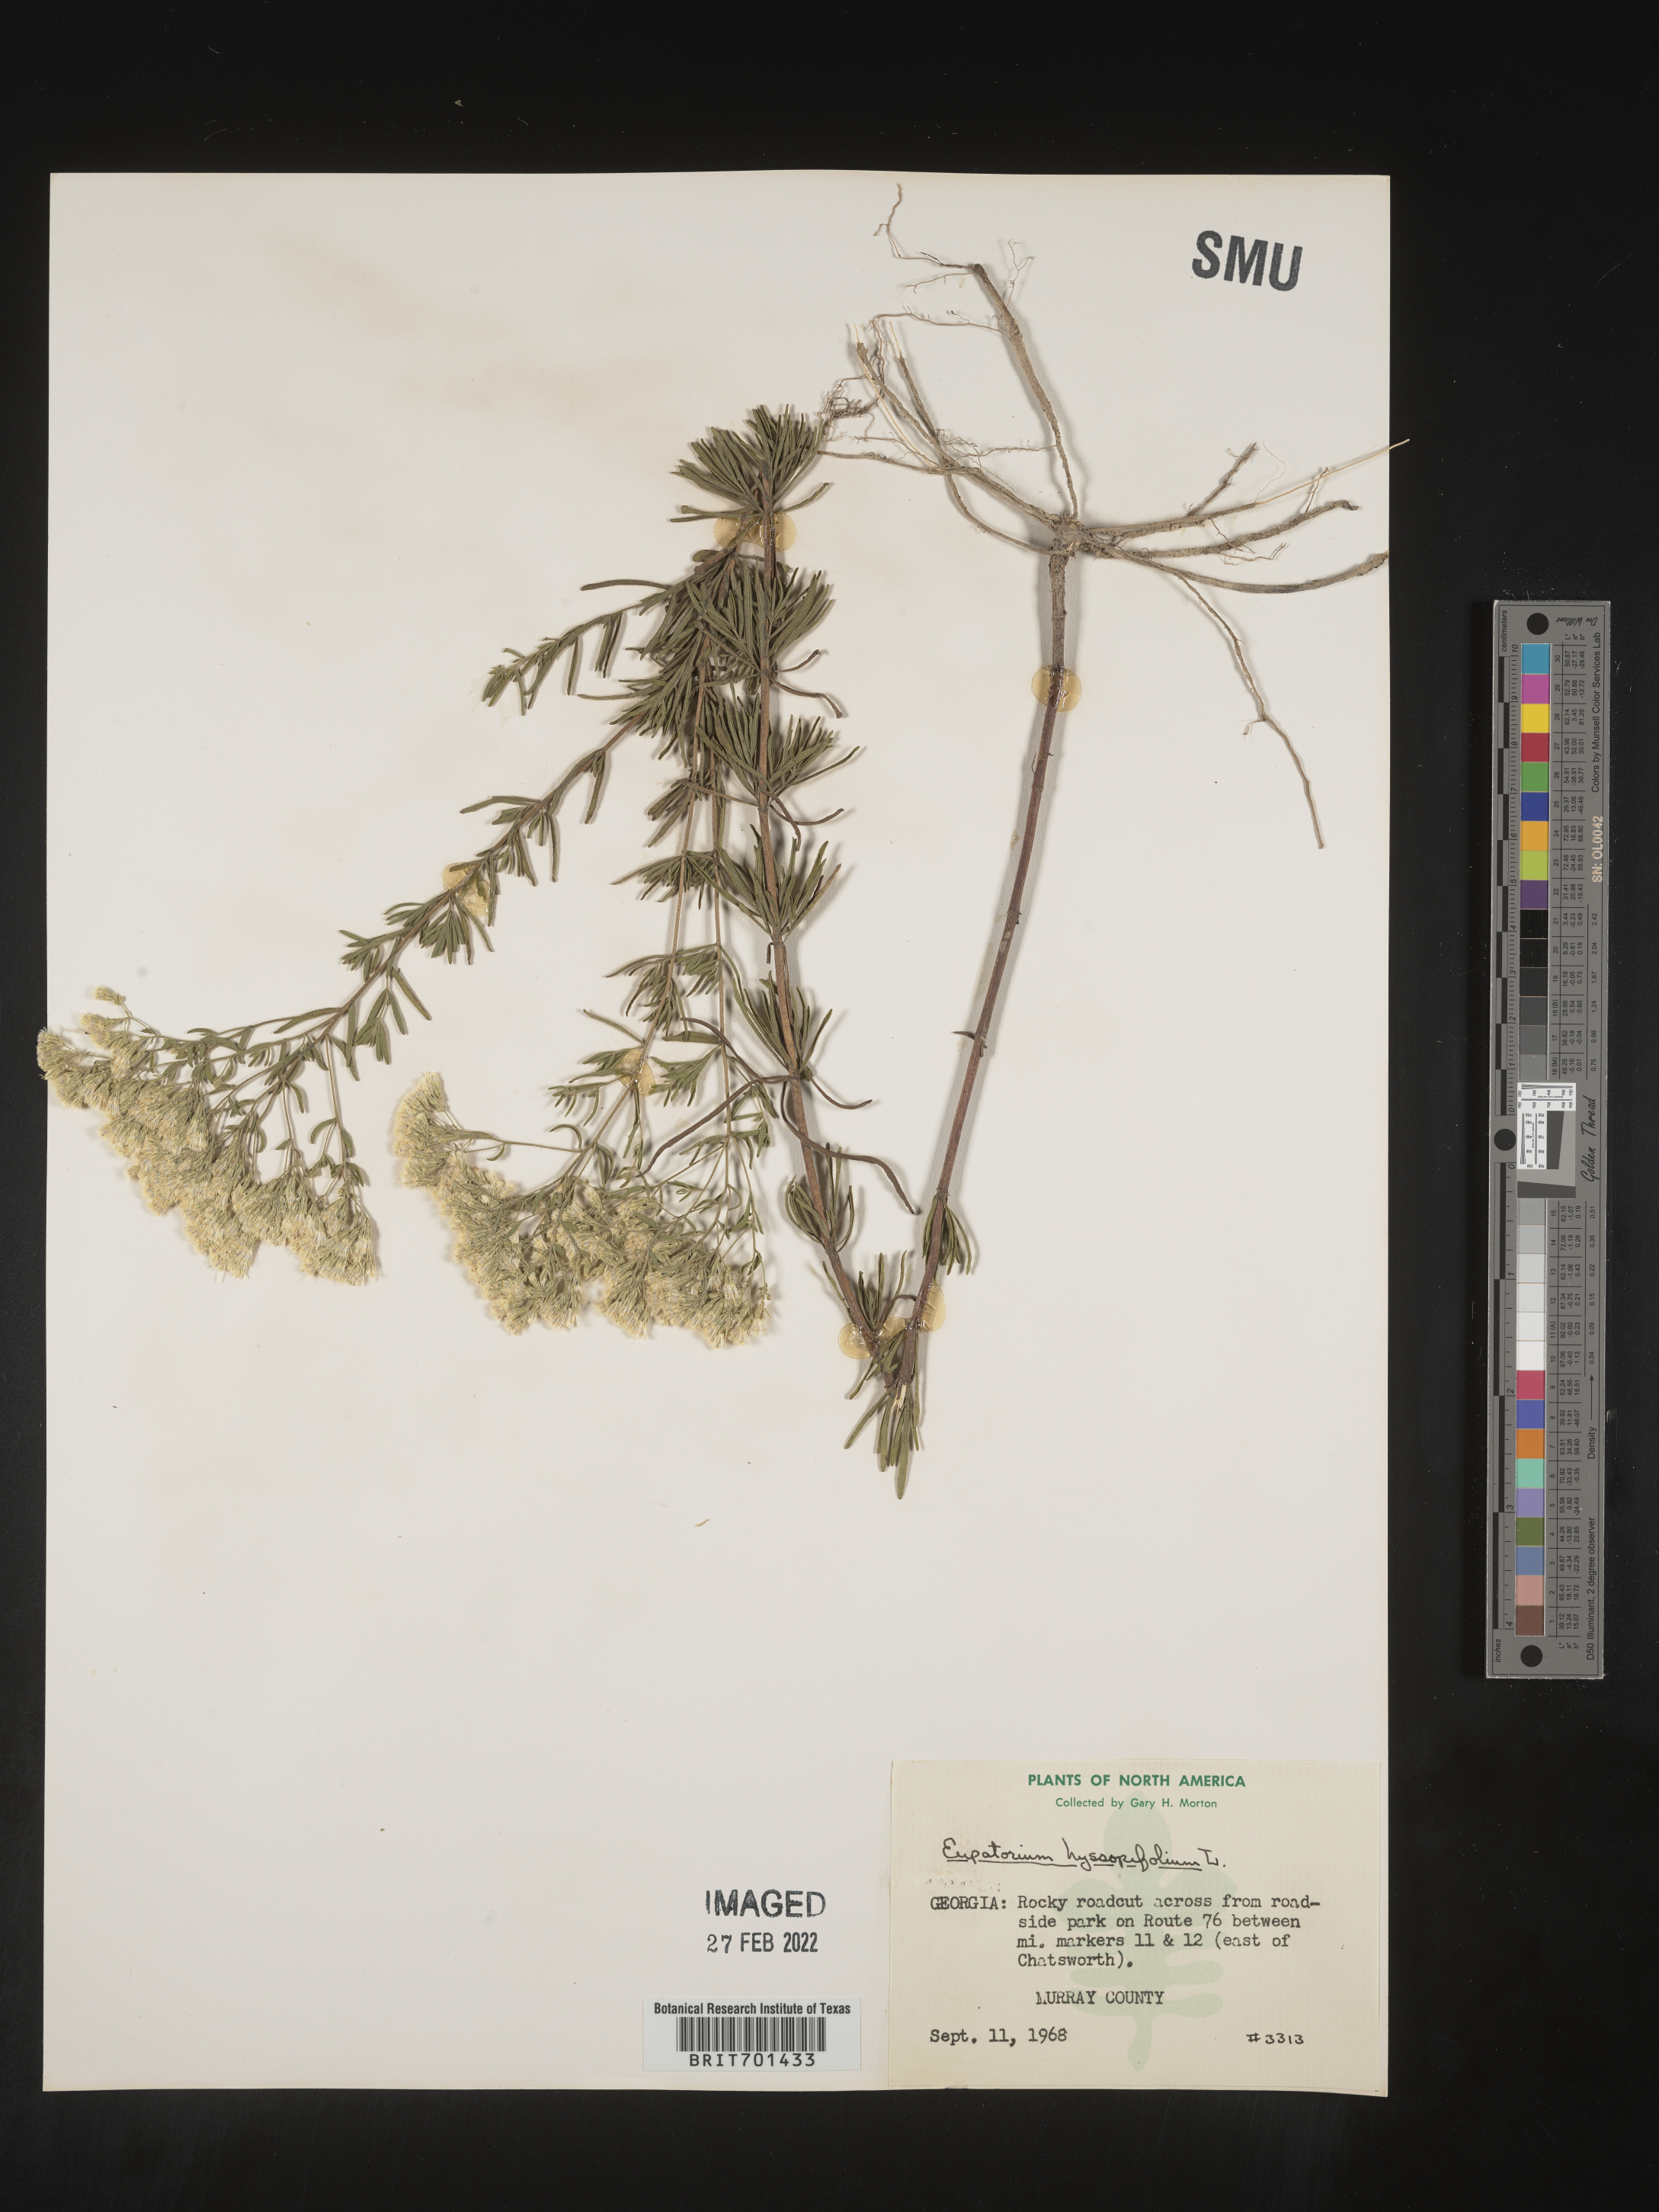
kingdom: Plantae
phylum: Tracheophyta
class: Magnoliopsida
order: Asterales
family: Asteraceae
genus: Eupatorium
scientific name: Eupatorium hyssopifolium
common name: Hyssop-leaf thoroughwort
